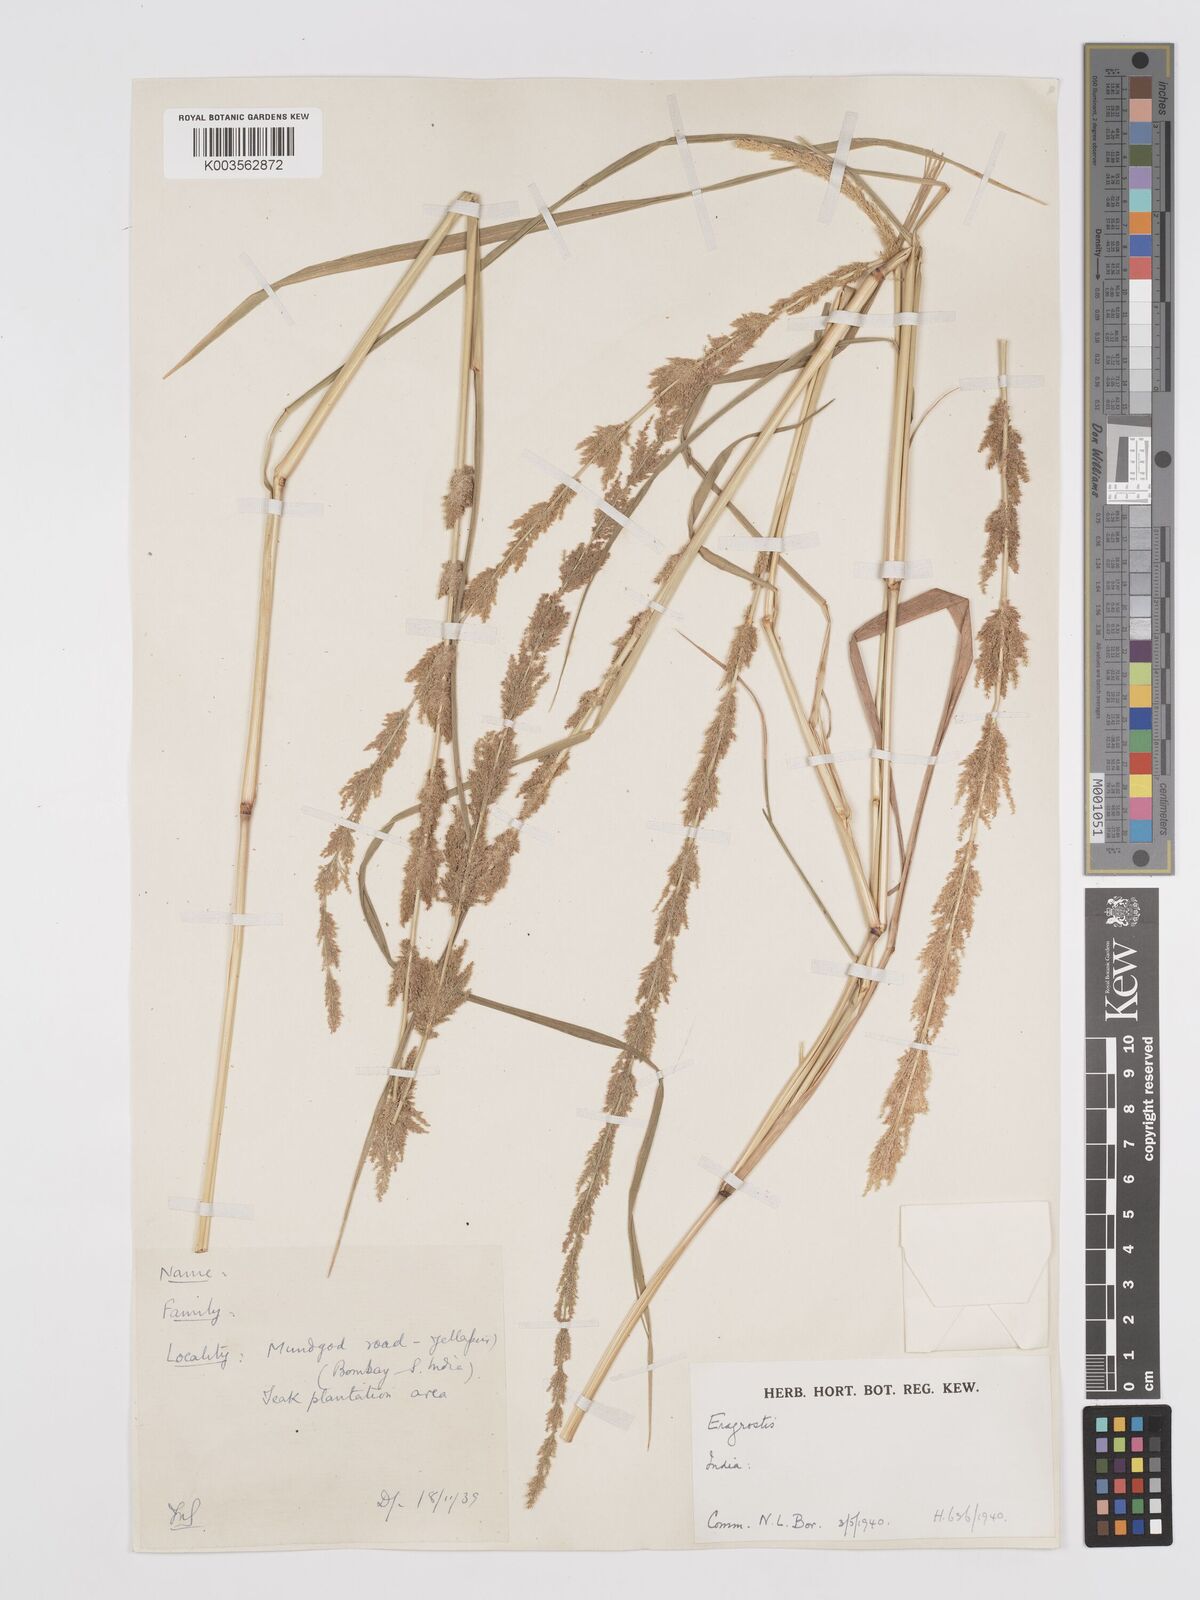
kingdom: Plantae
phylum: Tracheophyta
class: Liliopsida
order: Poales
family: Poaceae
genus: Eragrostis
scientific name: Eragrostis japonica
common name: Pond lovegrass
